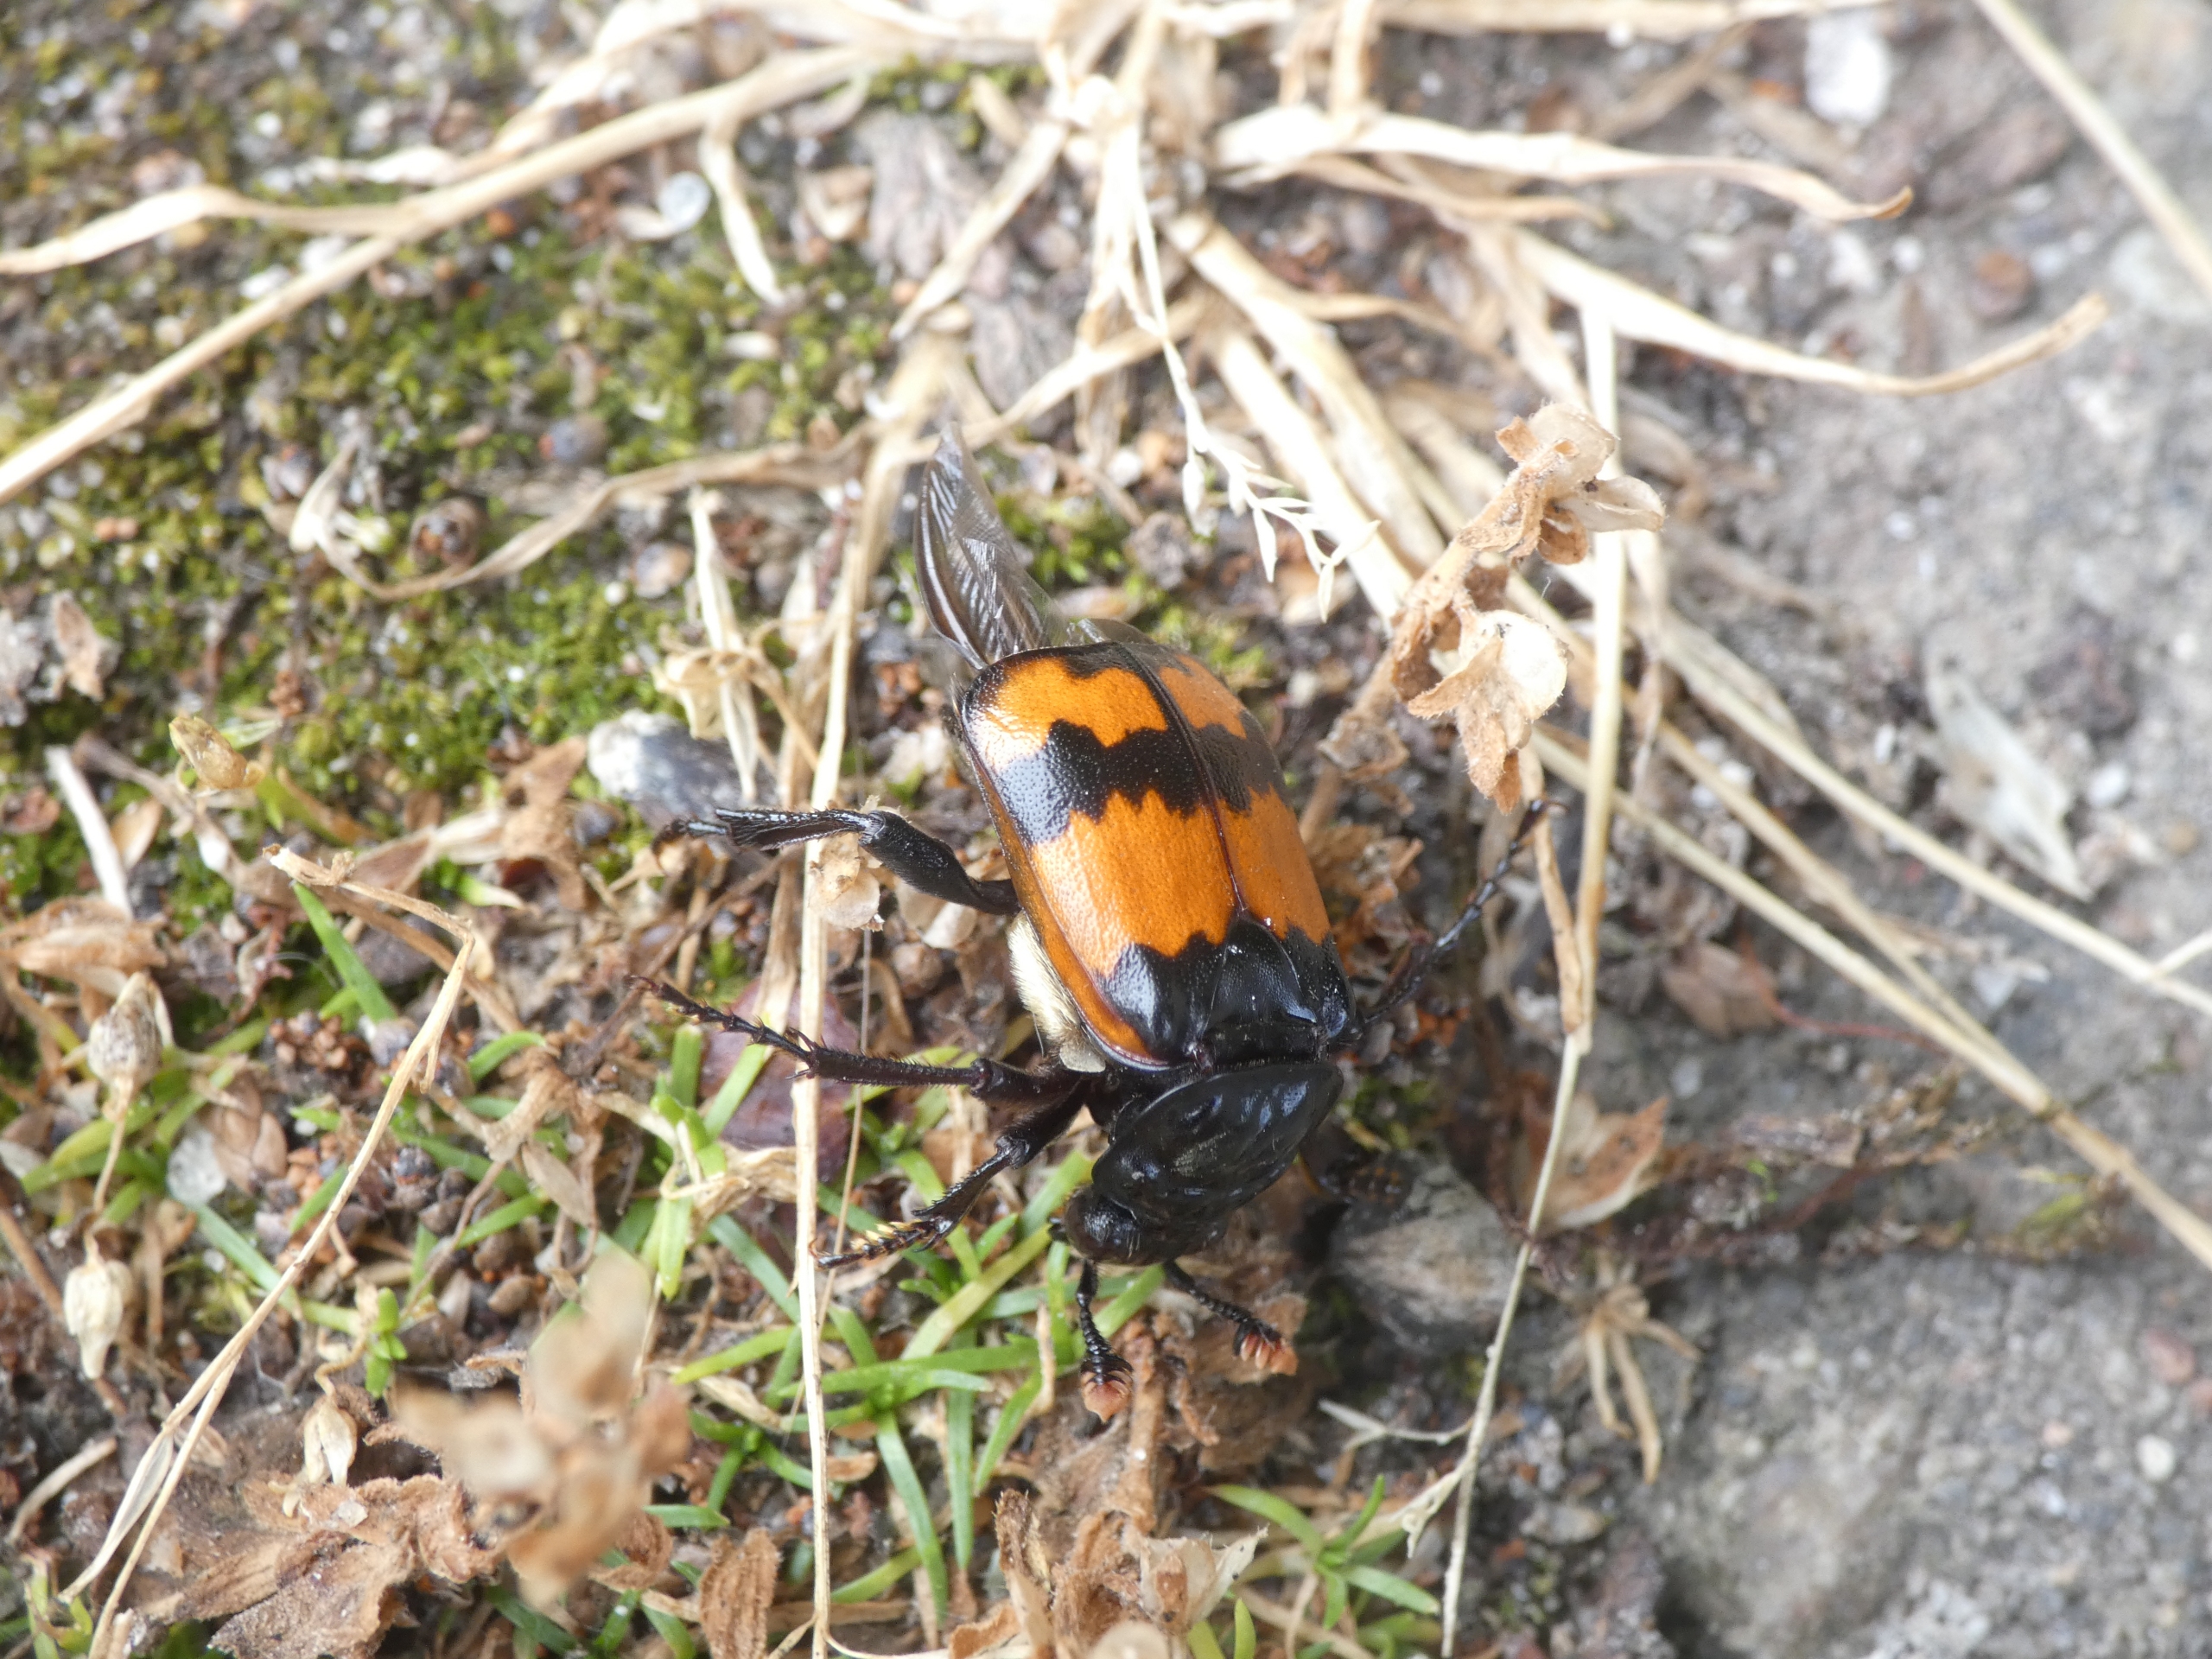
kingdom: Animalia
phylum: Arthropoda
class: Insecta
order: Coleoptera
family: Staphylinidae
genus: Nicrophorus
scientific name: Nicrophorus investigator
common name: Skovådselgraver
